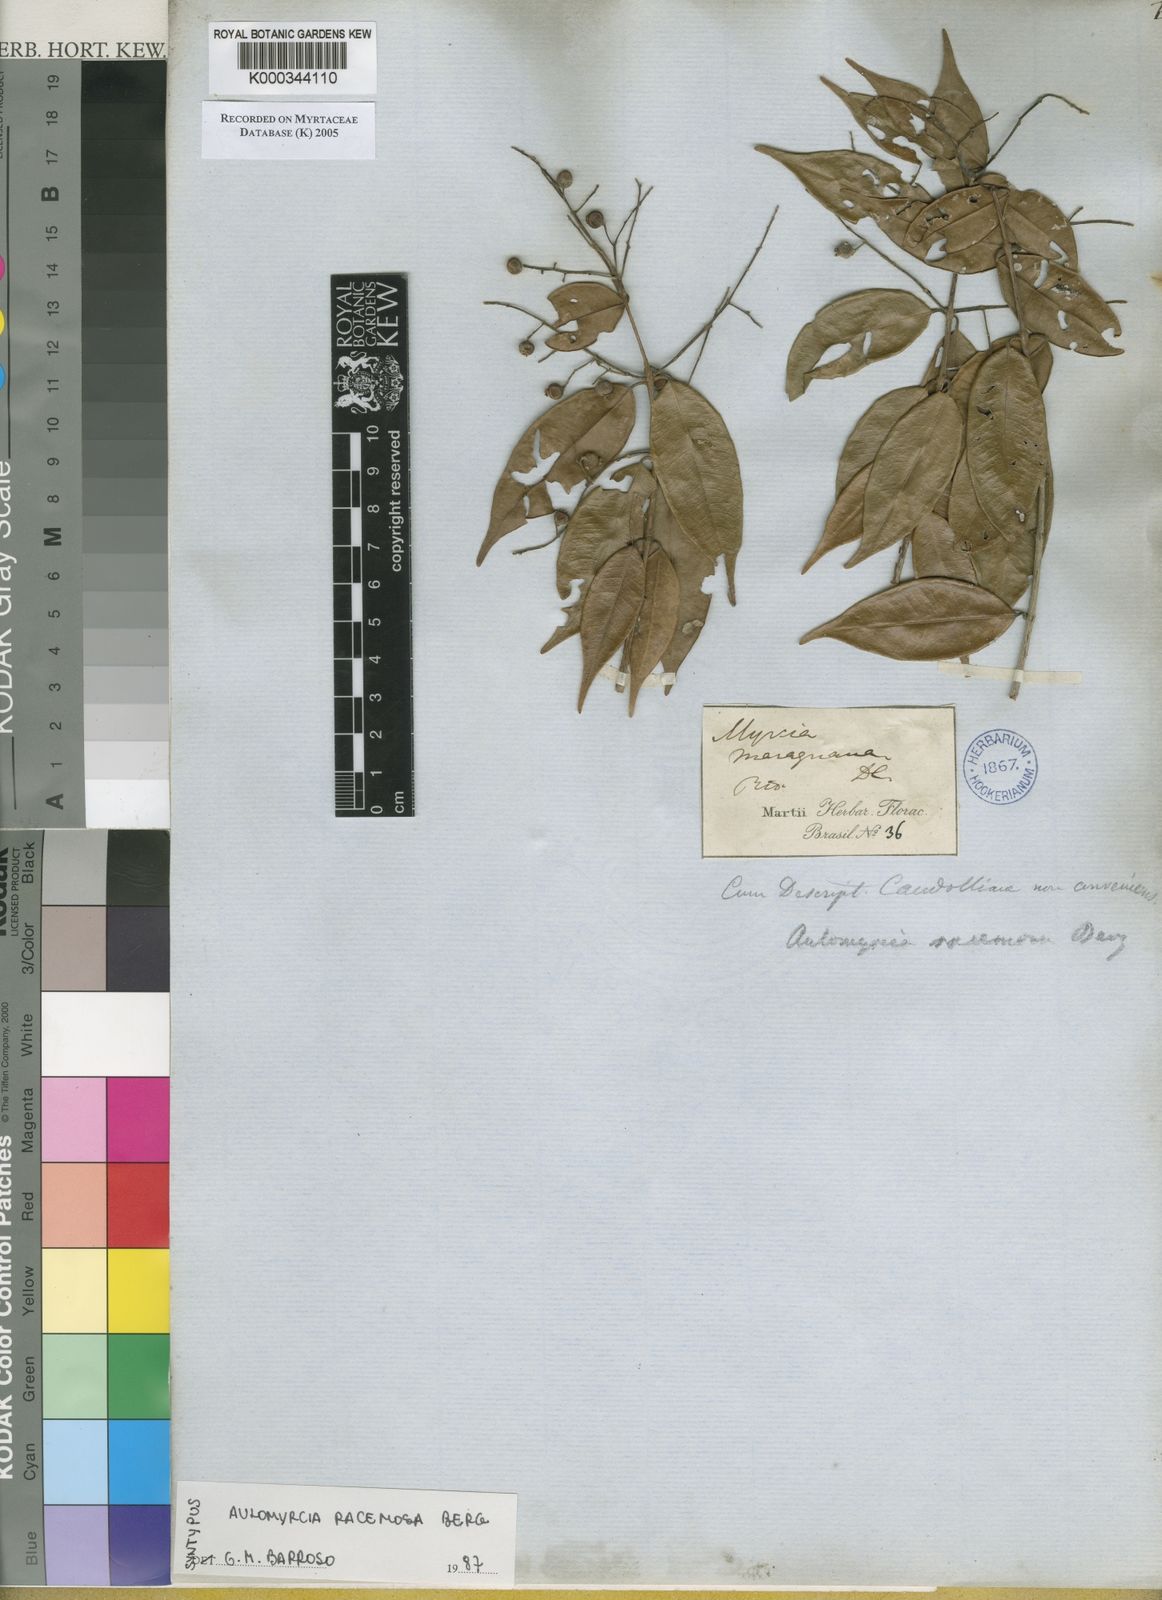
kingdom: Plantae
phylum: Tracheophyta
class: Magnoliopsida
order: Myrtales
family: Myrtaceae
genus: Myrcia
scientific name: Myrcia racemosa
